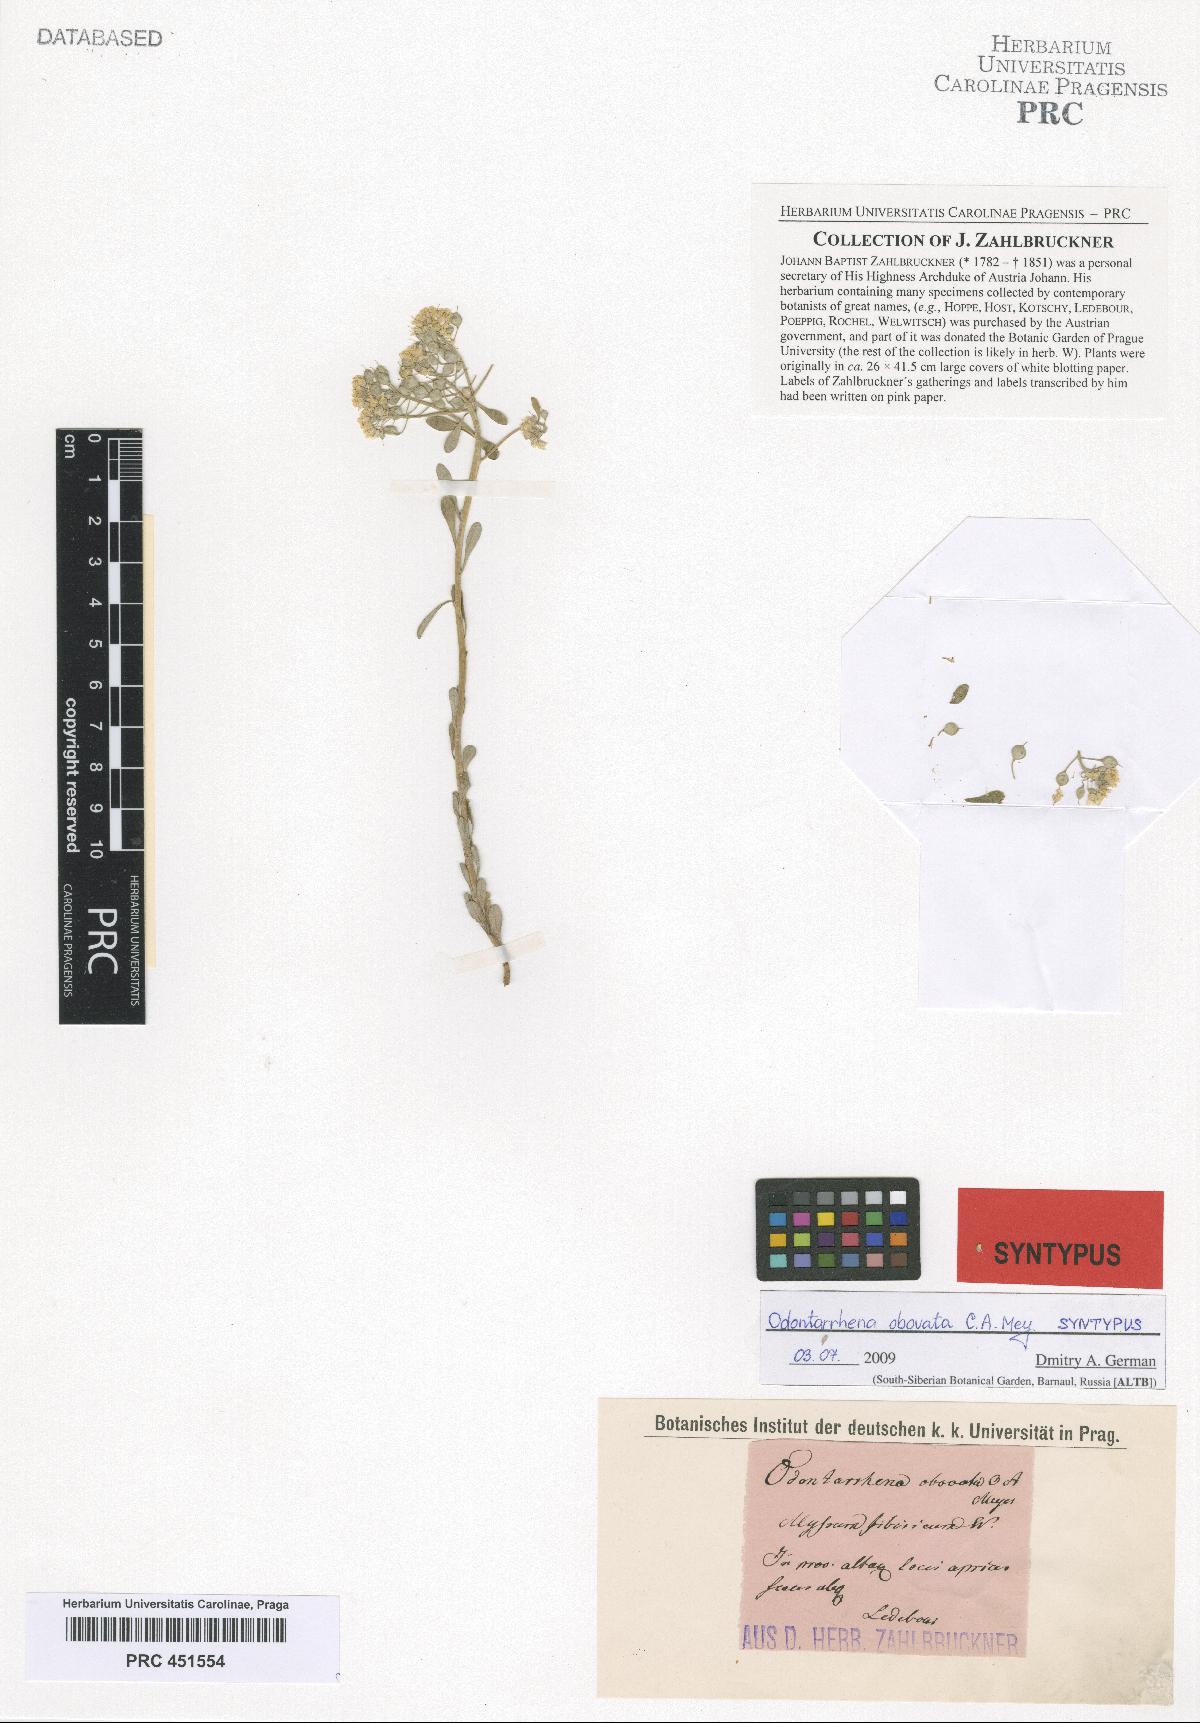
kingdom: Plantae
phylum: Tracheophyta
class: Magnoliopsida
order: Brassicales
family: Brassicaceae
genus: Odontarrhena
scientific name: Odontarrhena obovata
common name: American alyssum
